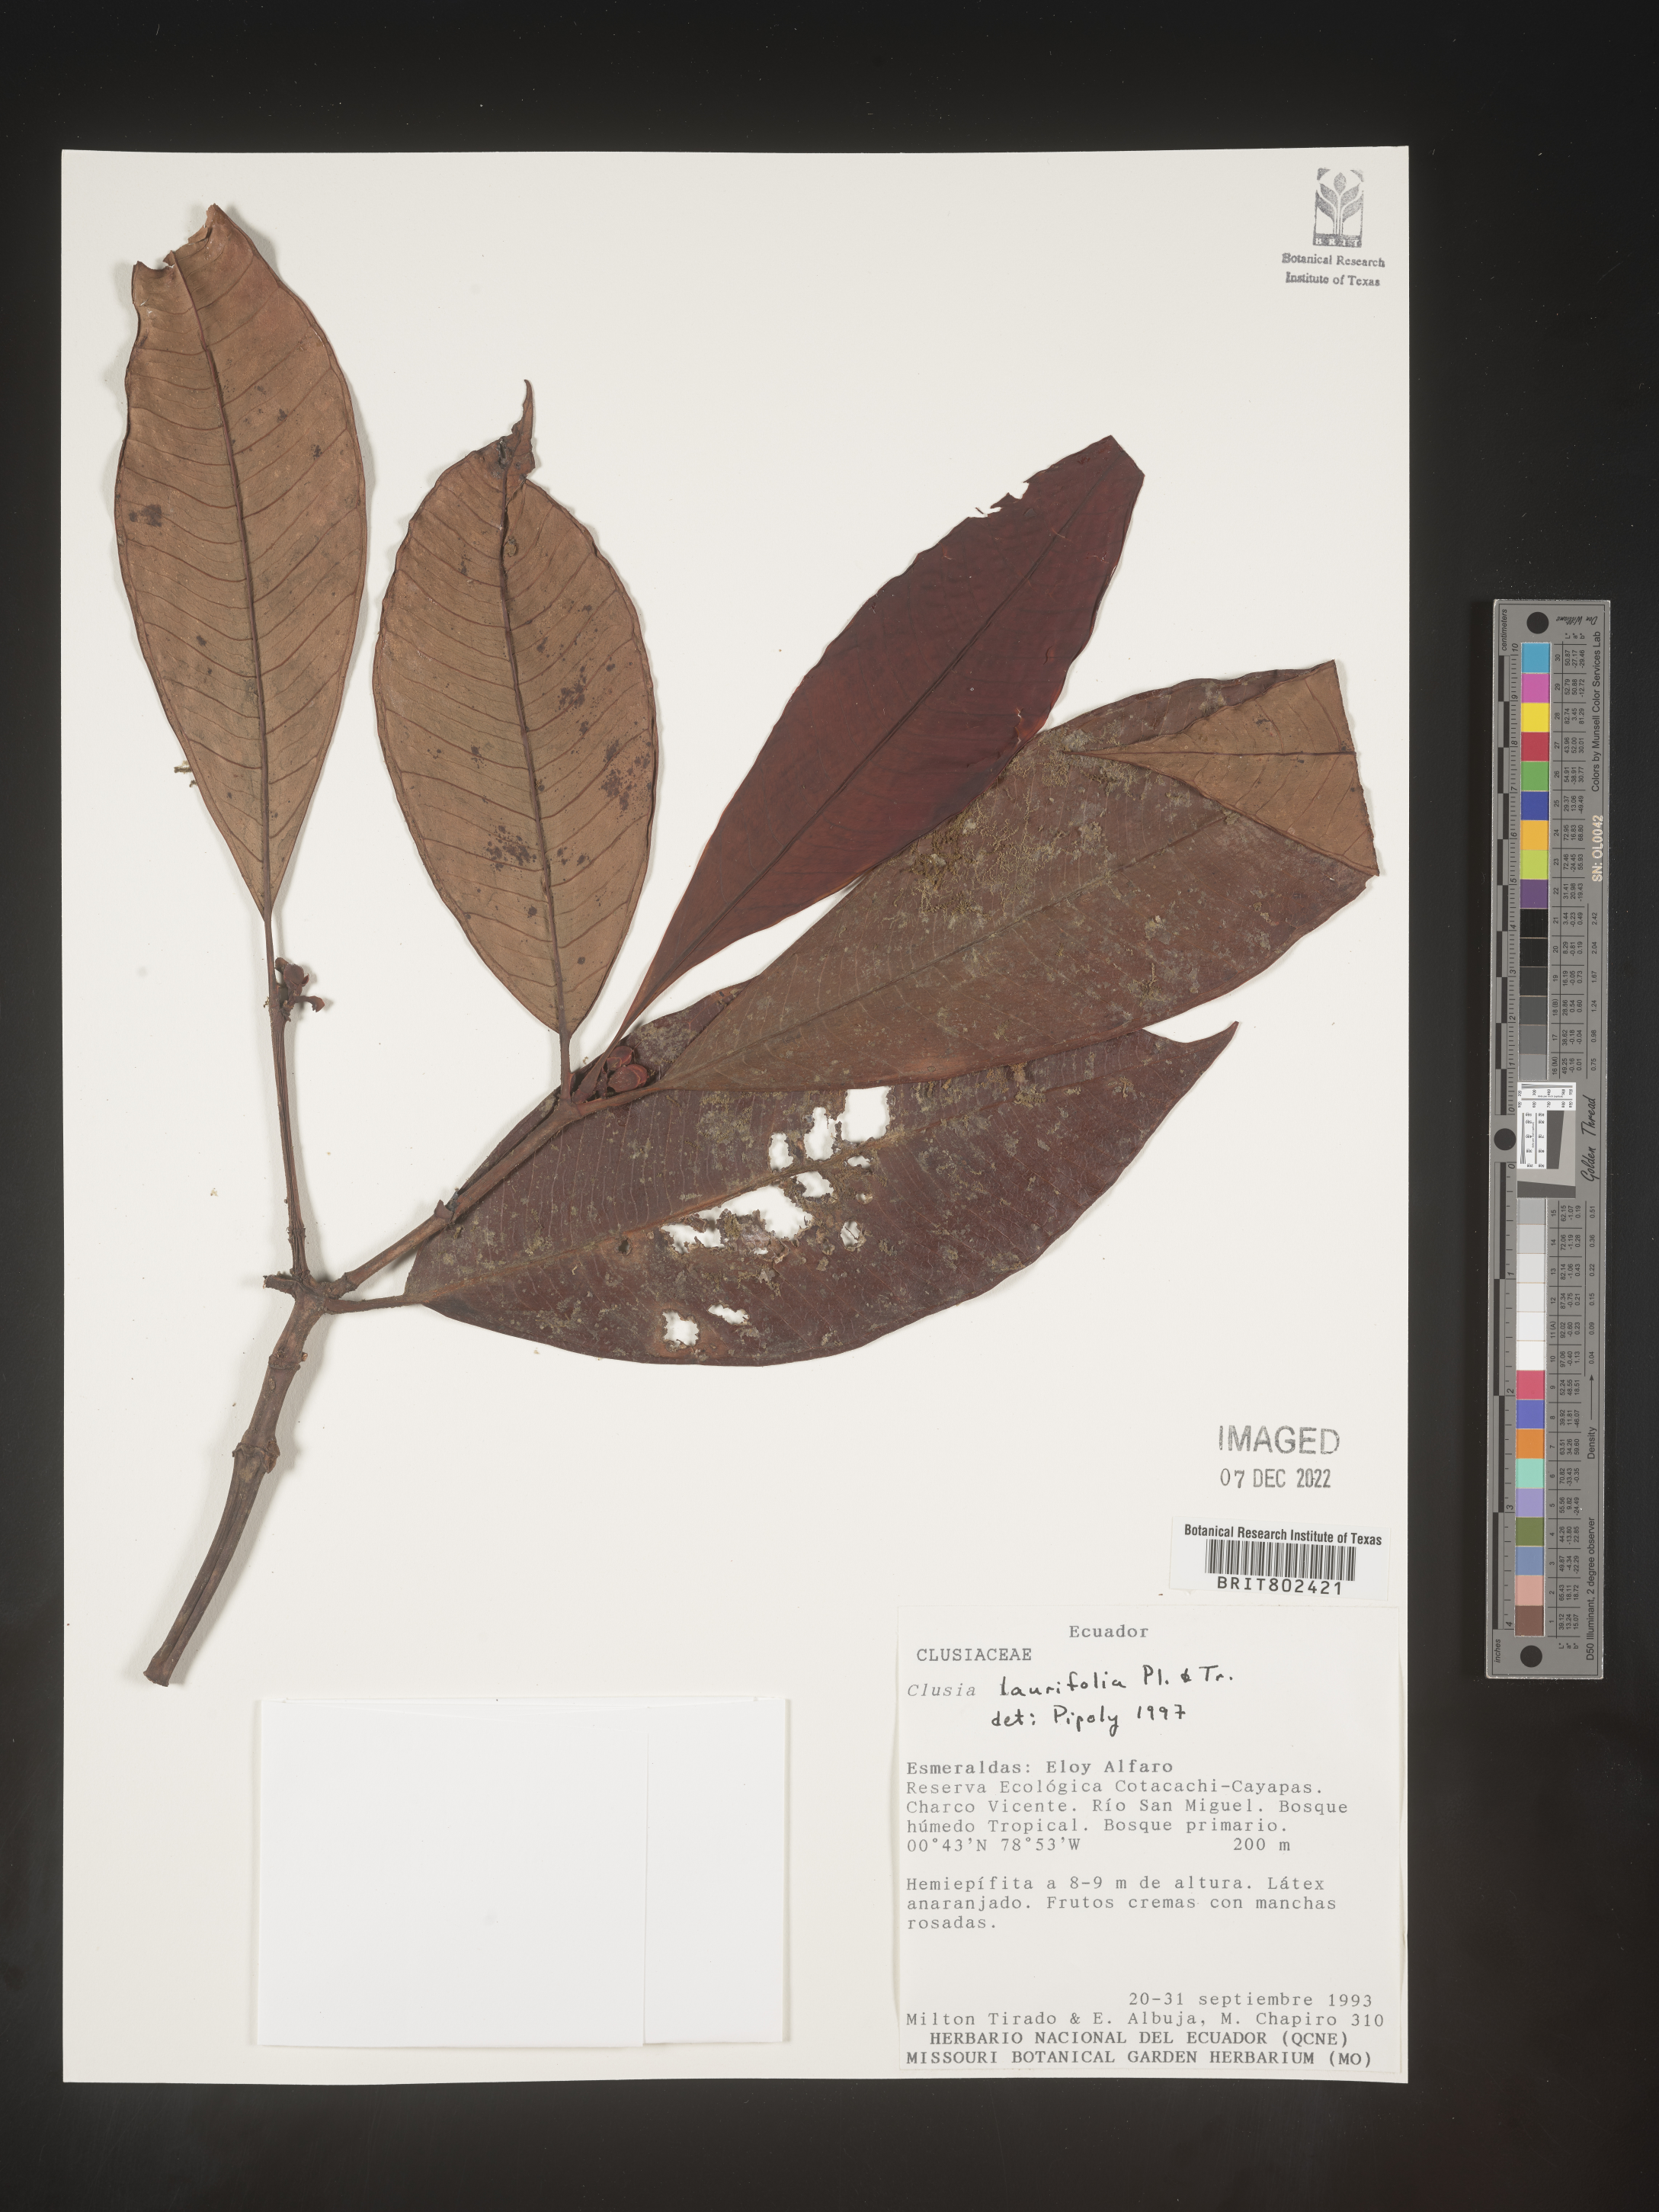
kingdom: Plantae
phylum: Tracheophyta
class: Magnoliopsida
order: Malpighiales
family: Clusiaceae
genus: Clusia
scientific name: Clusia laurifolia
